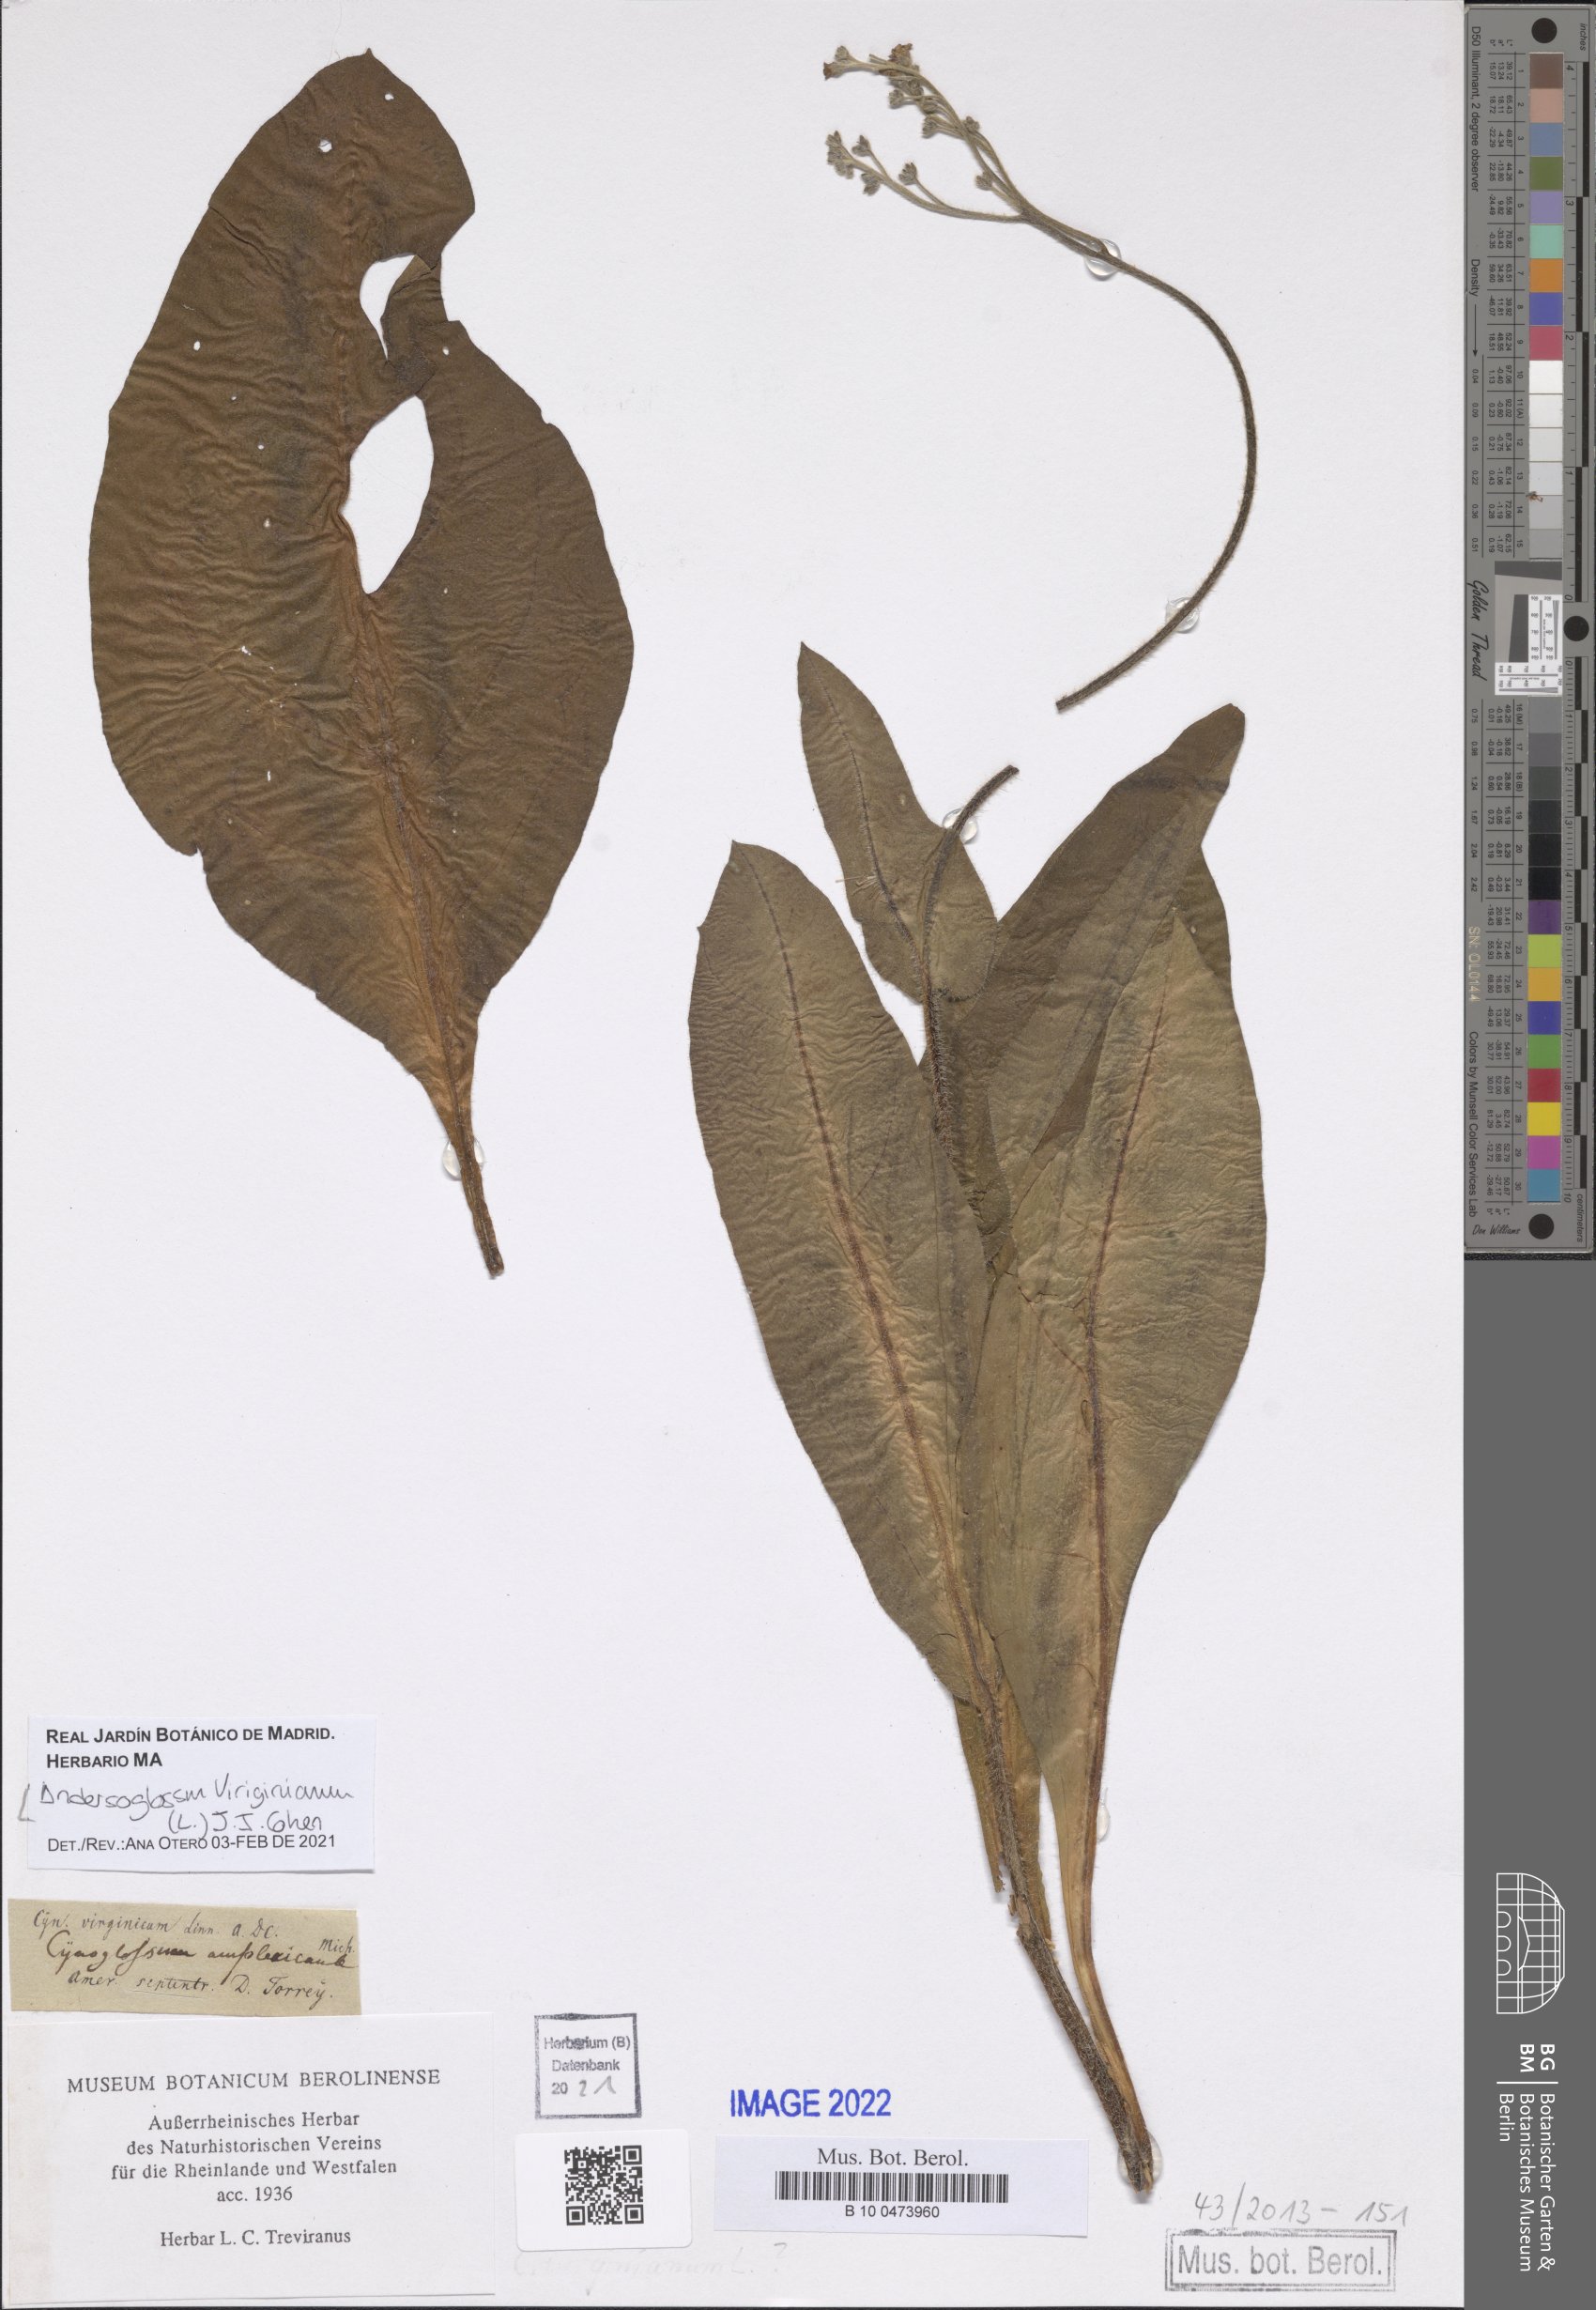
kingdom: Plantae
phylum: Tracheophyta
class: Magnoliopsida
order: Boraginales
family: Boraginaceae
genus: Andersonglossum
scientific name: Andersonglossum virginianum
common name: Wild comfrey
